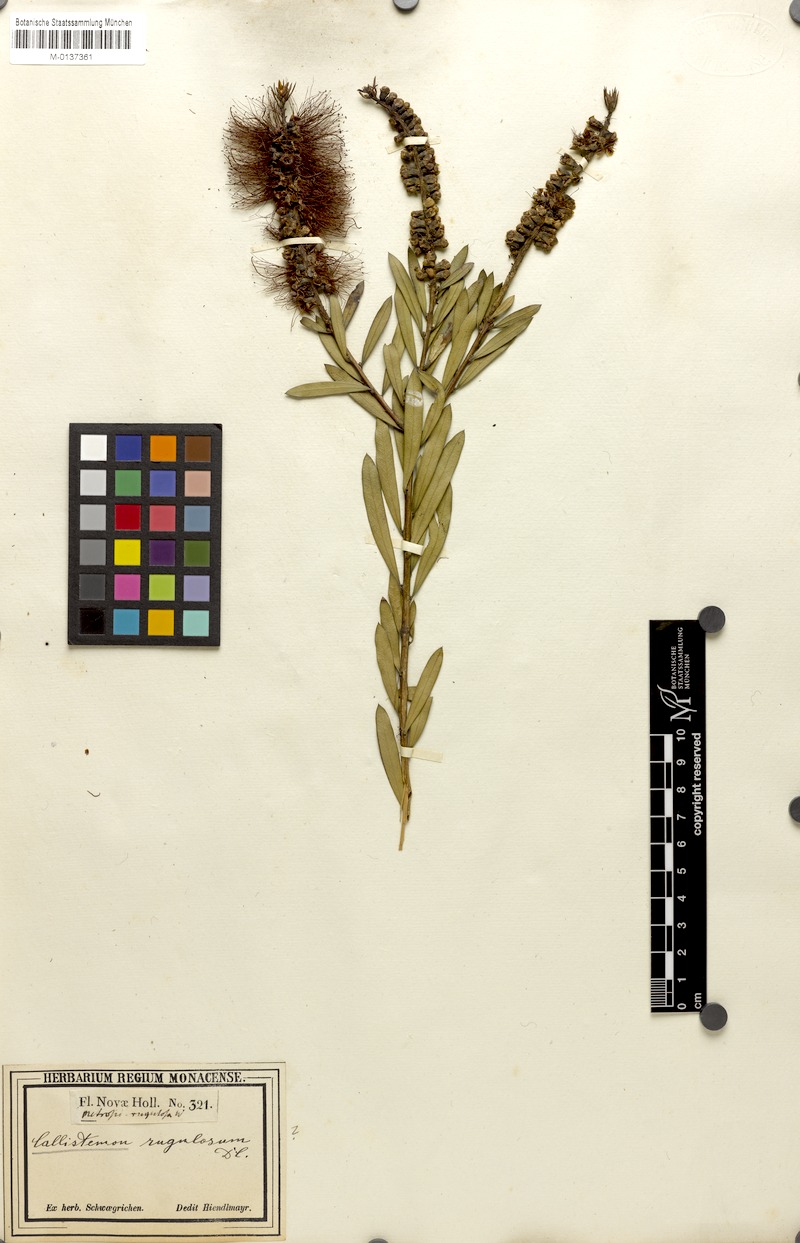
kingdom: Plantae
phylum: Tracheophyta
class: Magnoliopsida
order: Myrtales
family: Myrtaceae
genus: Callistemon
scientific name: Callistemon rugulosus
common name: Scarlet bottlebrush
